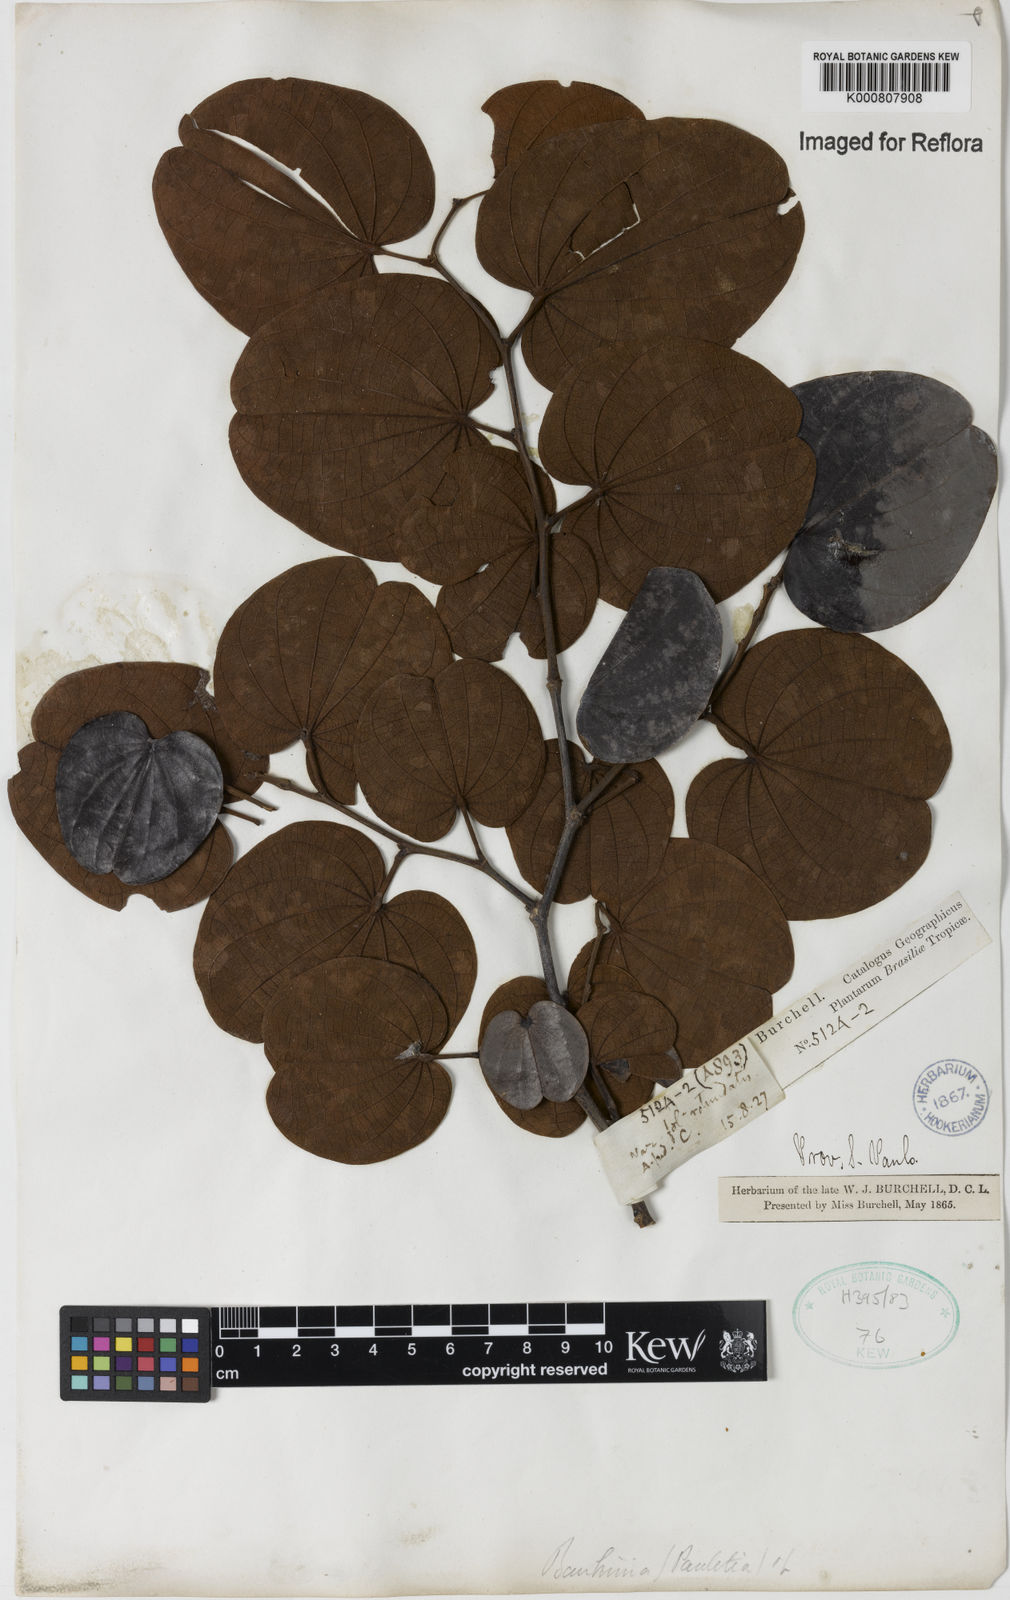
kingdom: Plantae
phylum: Tracheophyta
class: Magnoliopsida
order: Fabales
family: Fabaceae
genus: Bauhinia
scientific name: Bauhinia
